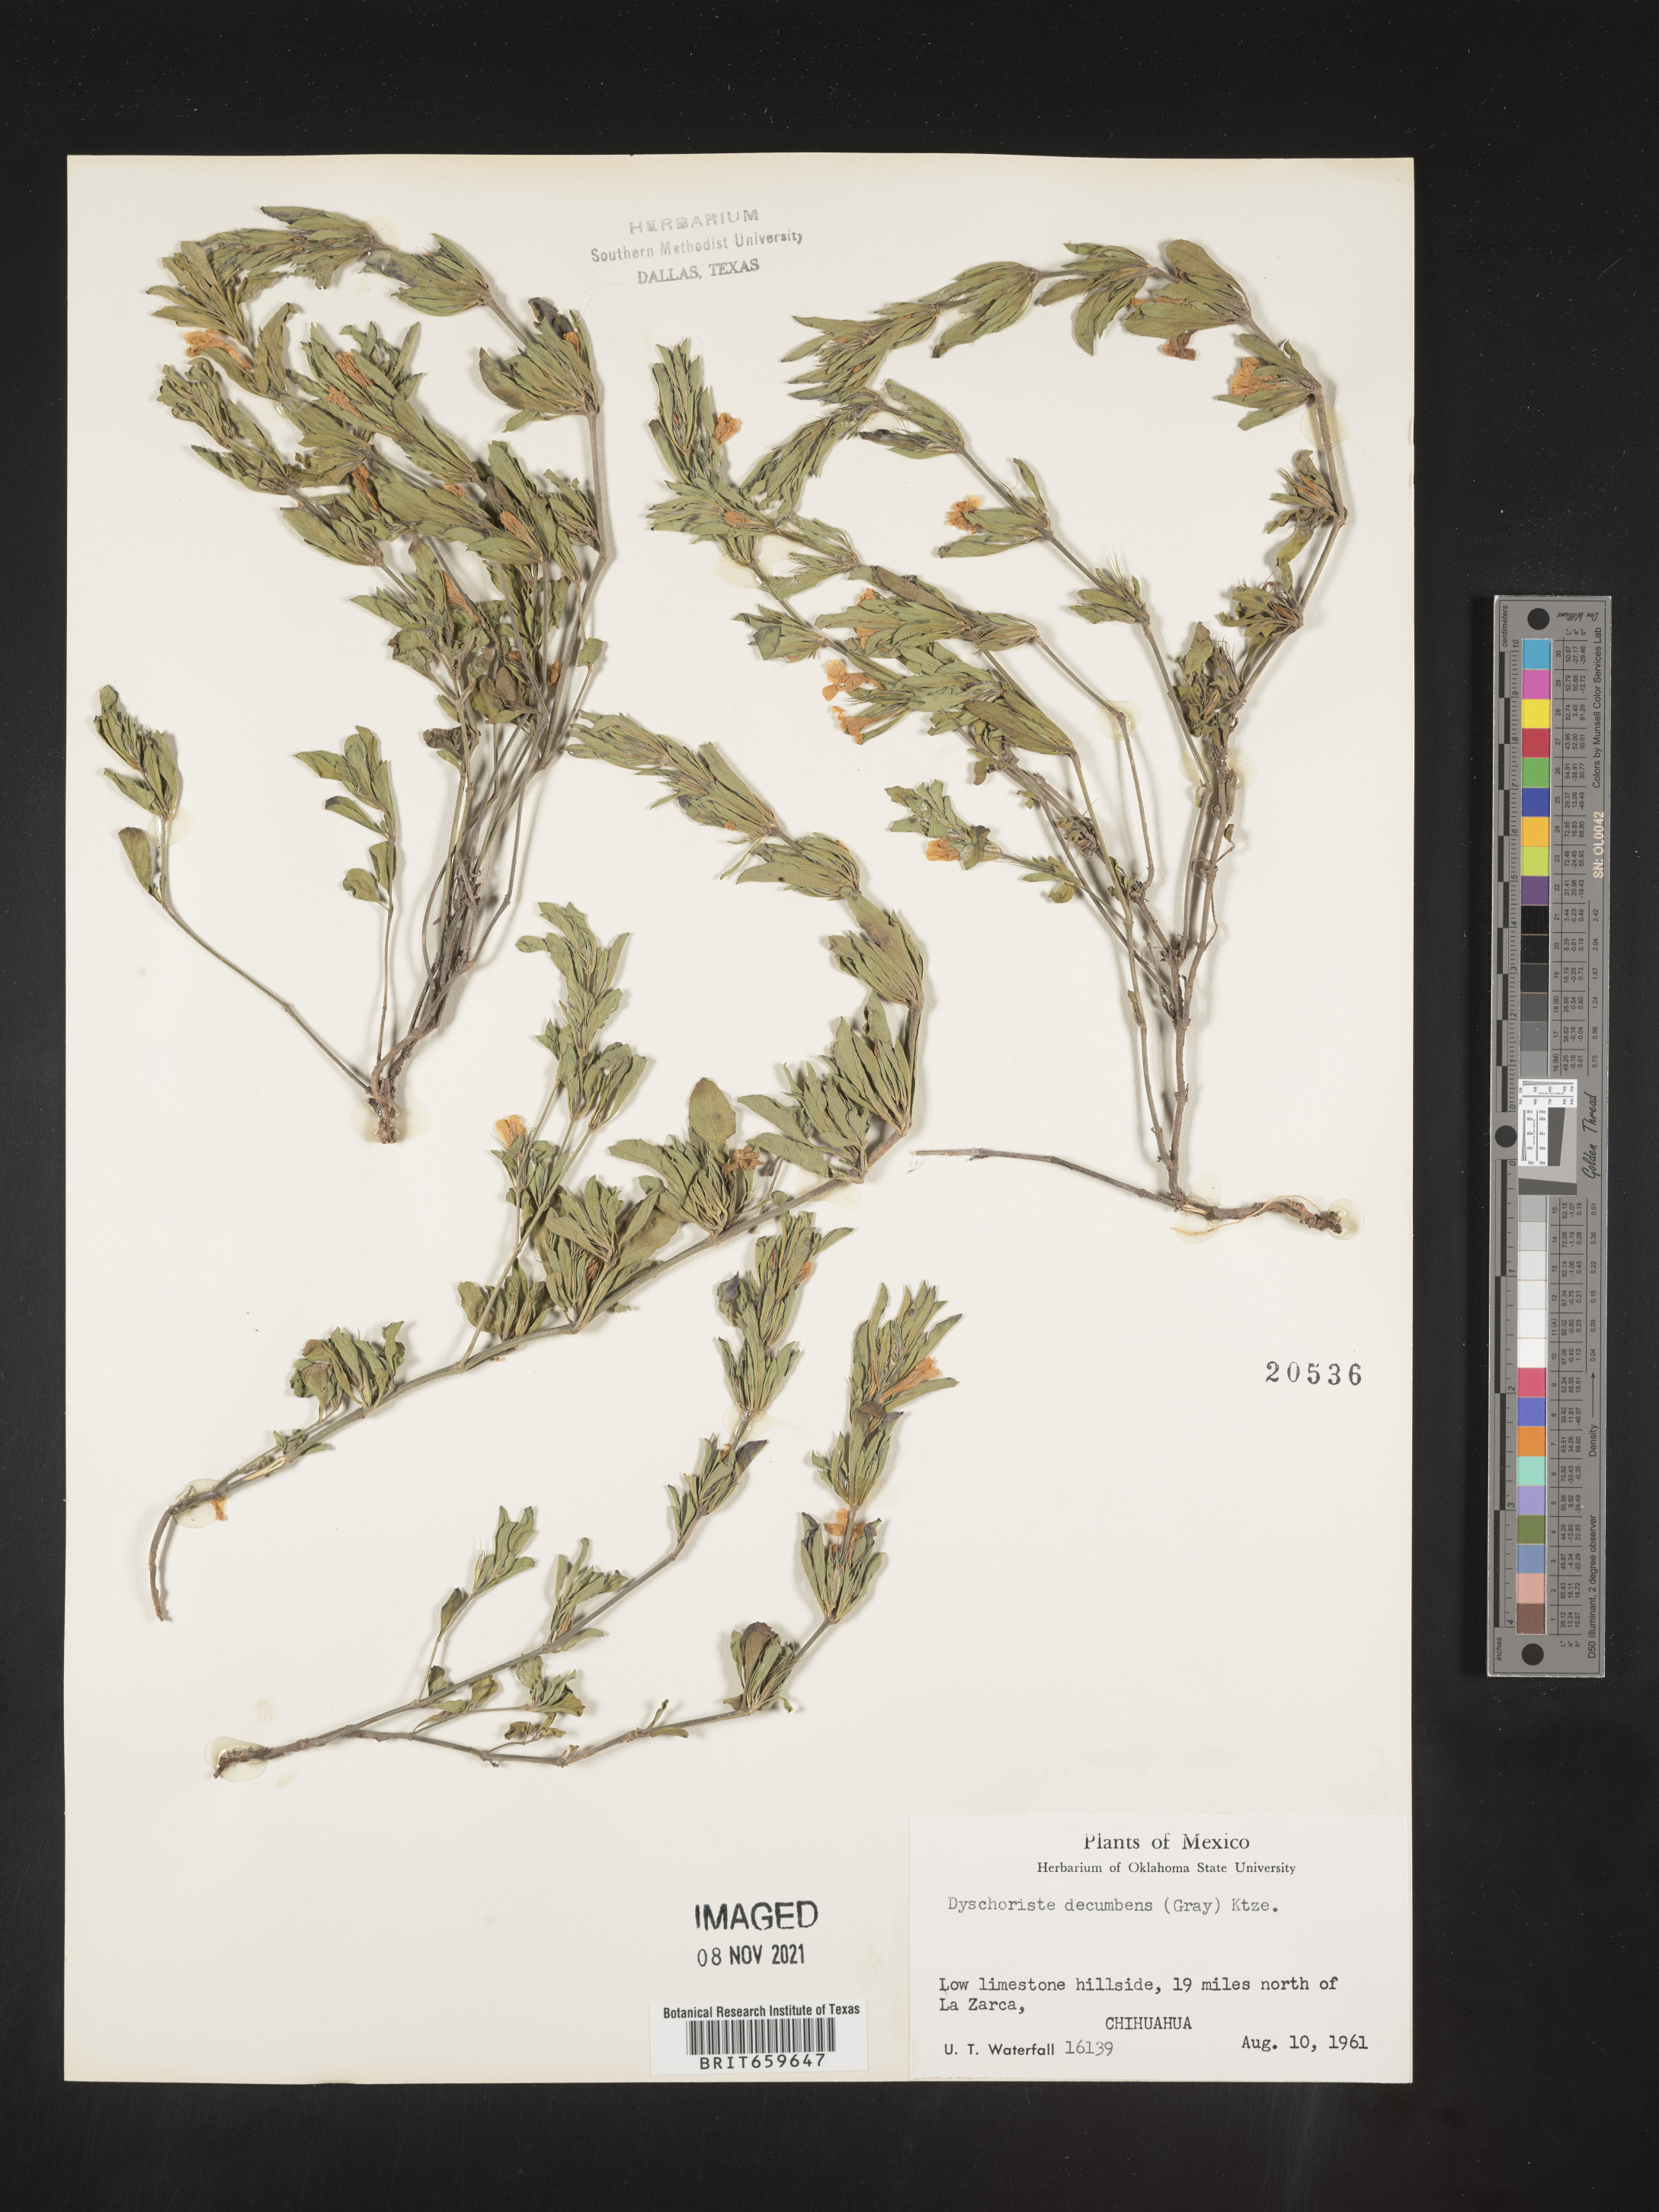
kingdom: Plantae
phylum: Tracheophyta
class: Magnoliopsida
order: Lamiales
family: Acanthaceae
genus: Dyschoriste
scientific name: Dyschoriste
